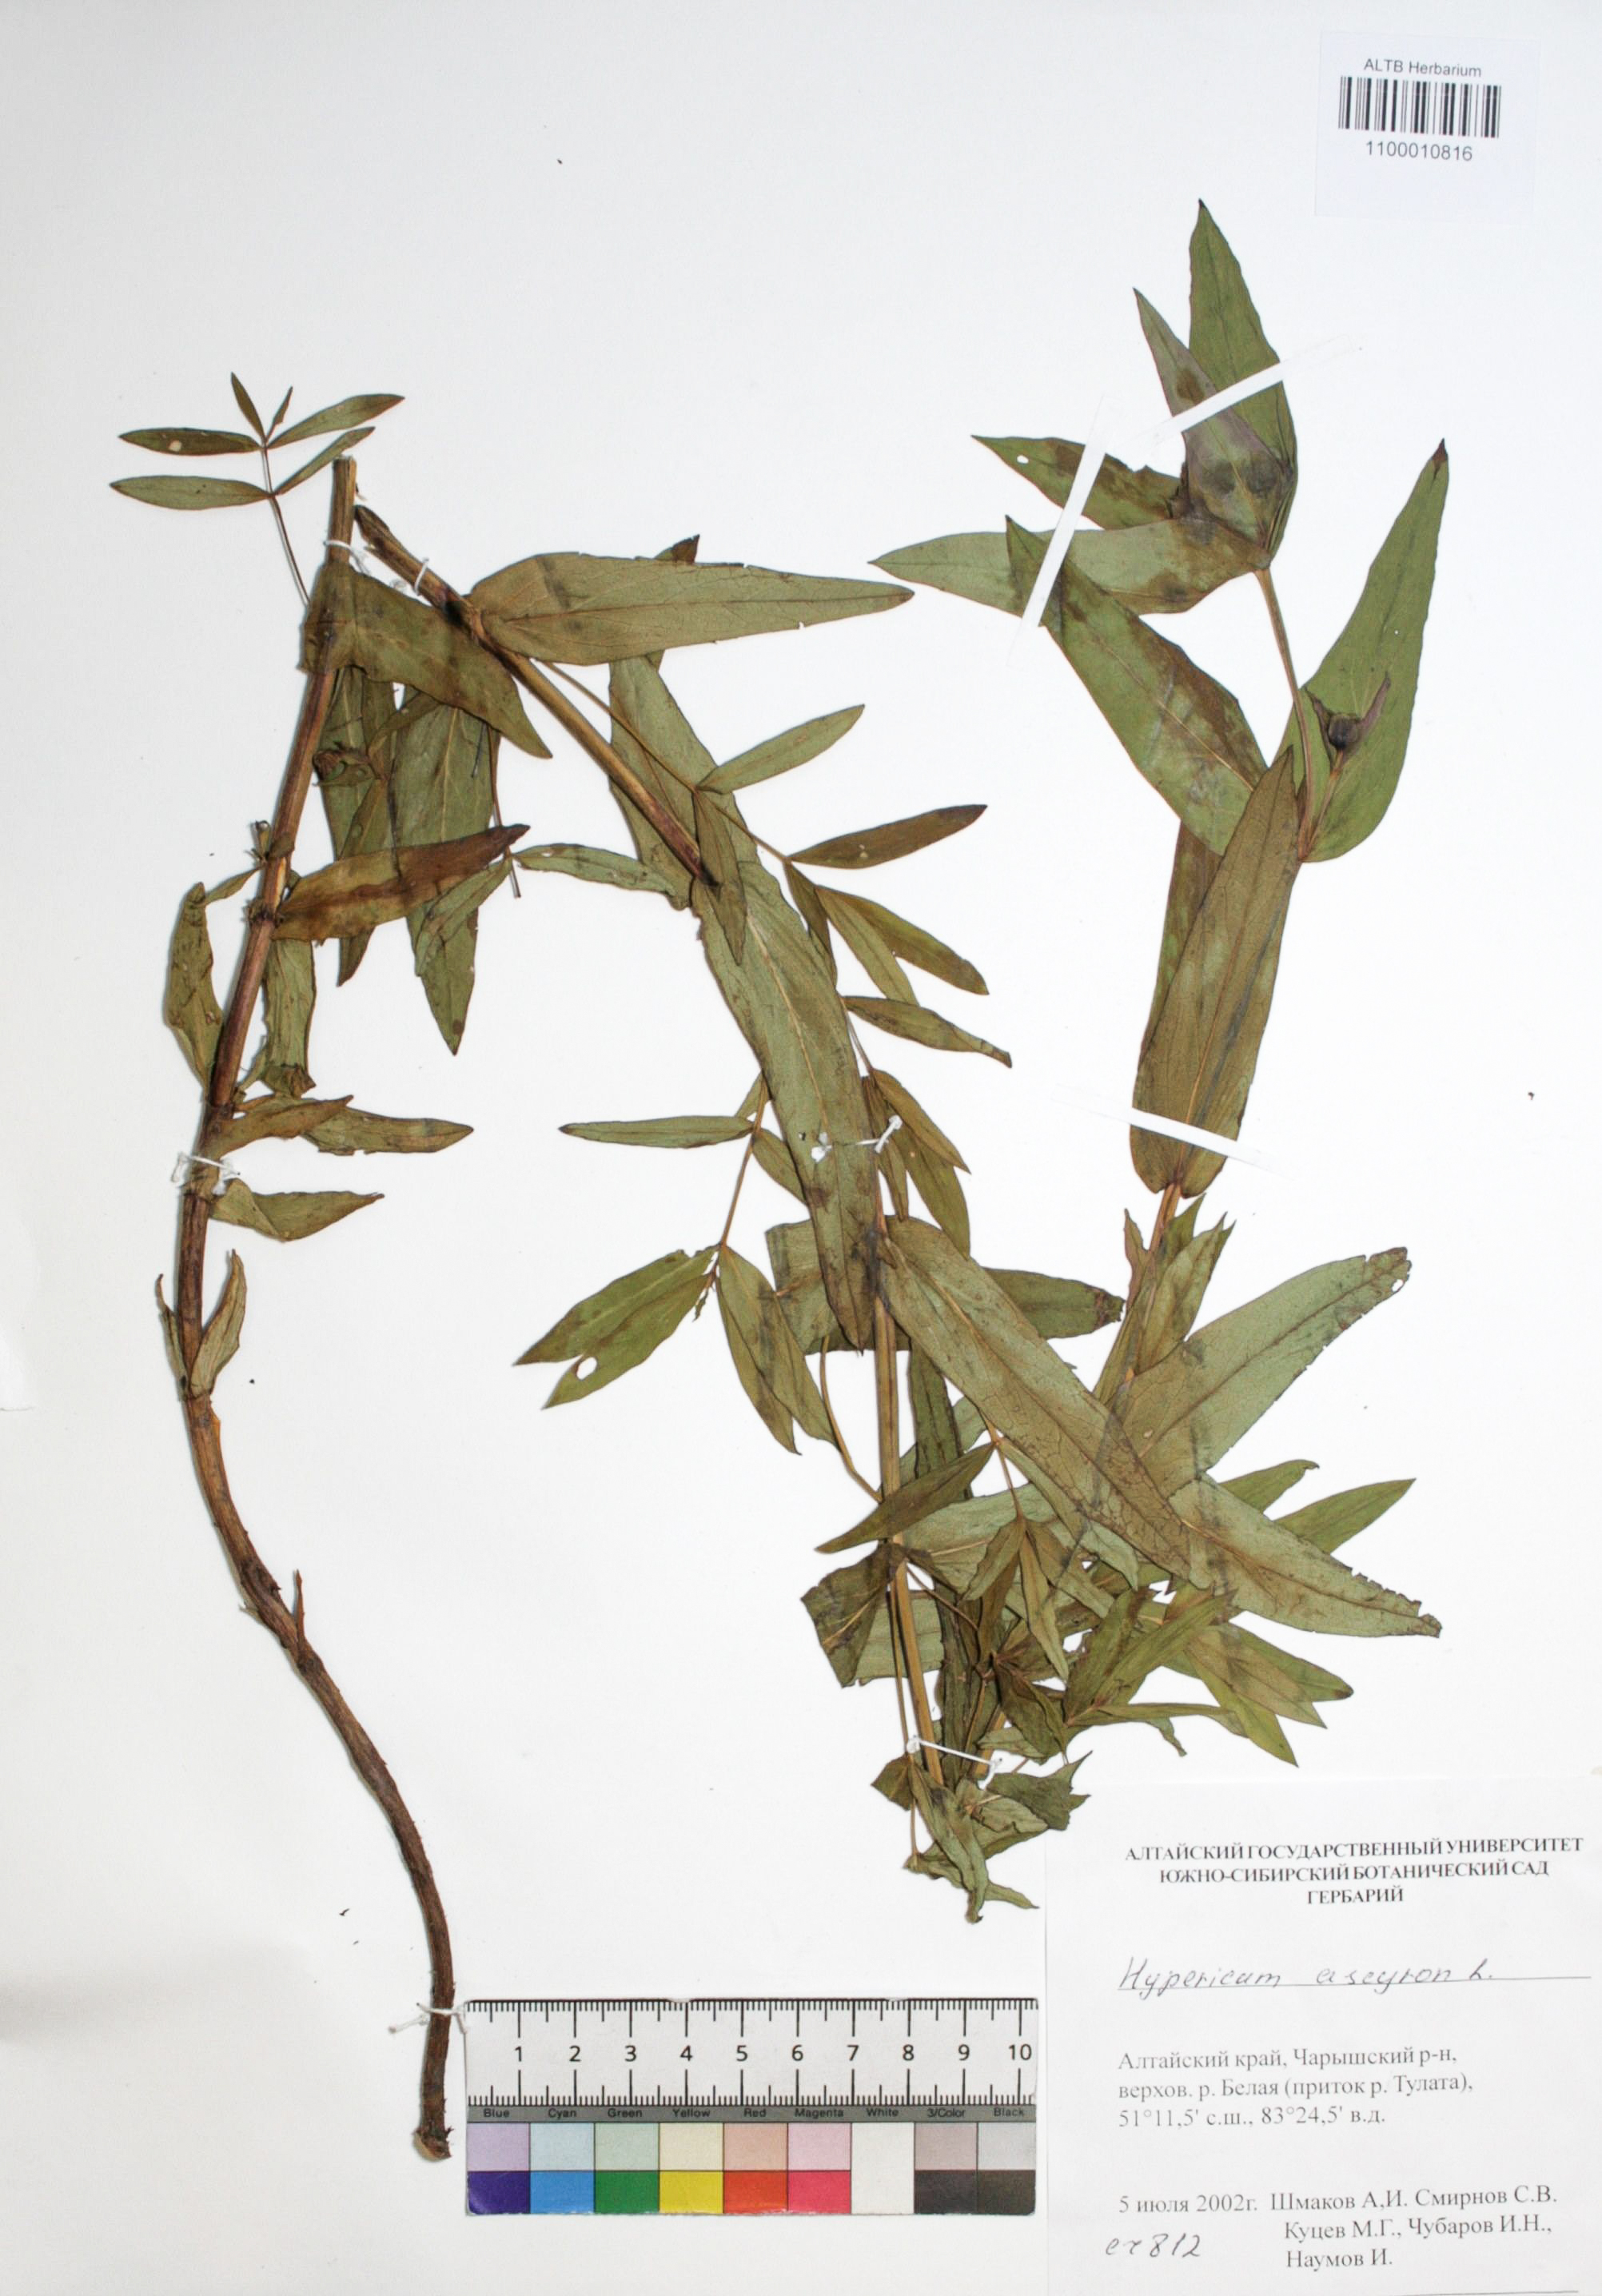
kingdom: Plantae
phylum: Tracheophyta
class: Magnoliopsida
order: Malpighiales
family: Hypericaceae
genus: Hypericum
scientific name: Hypericum ascyron
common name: Giant st. john's-wort
